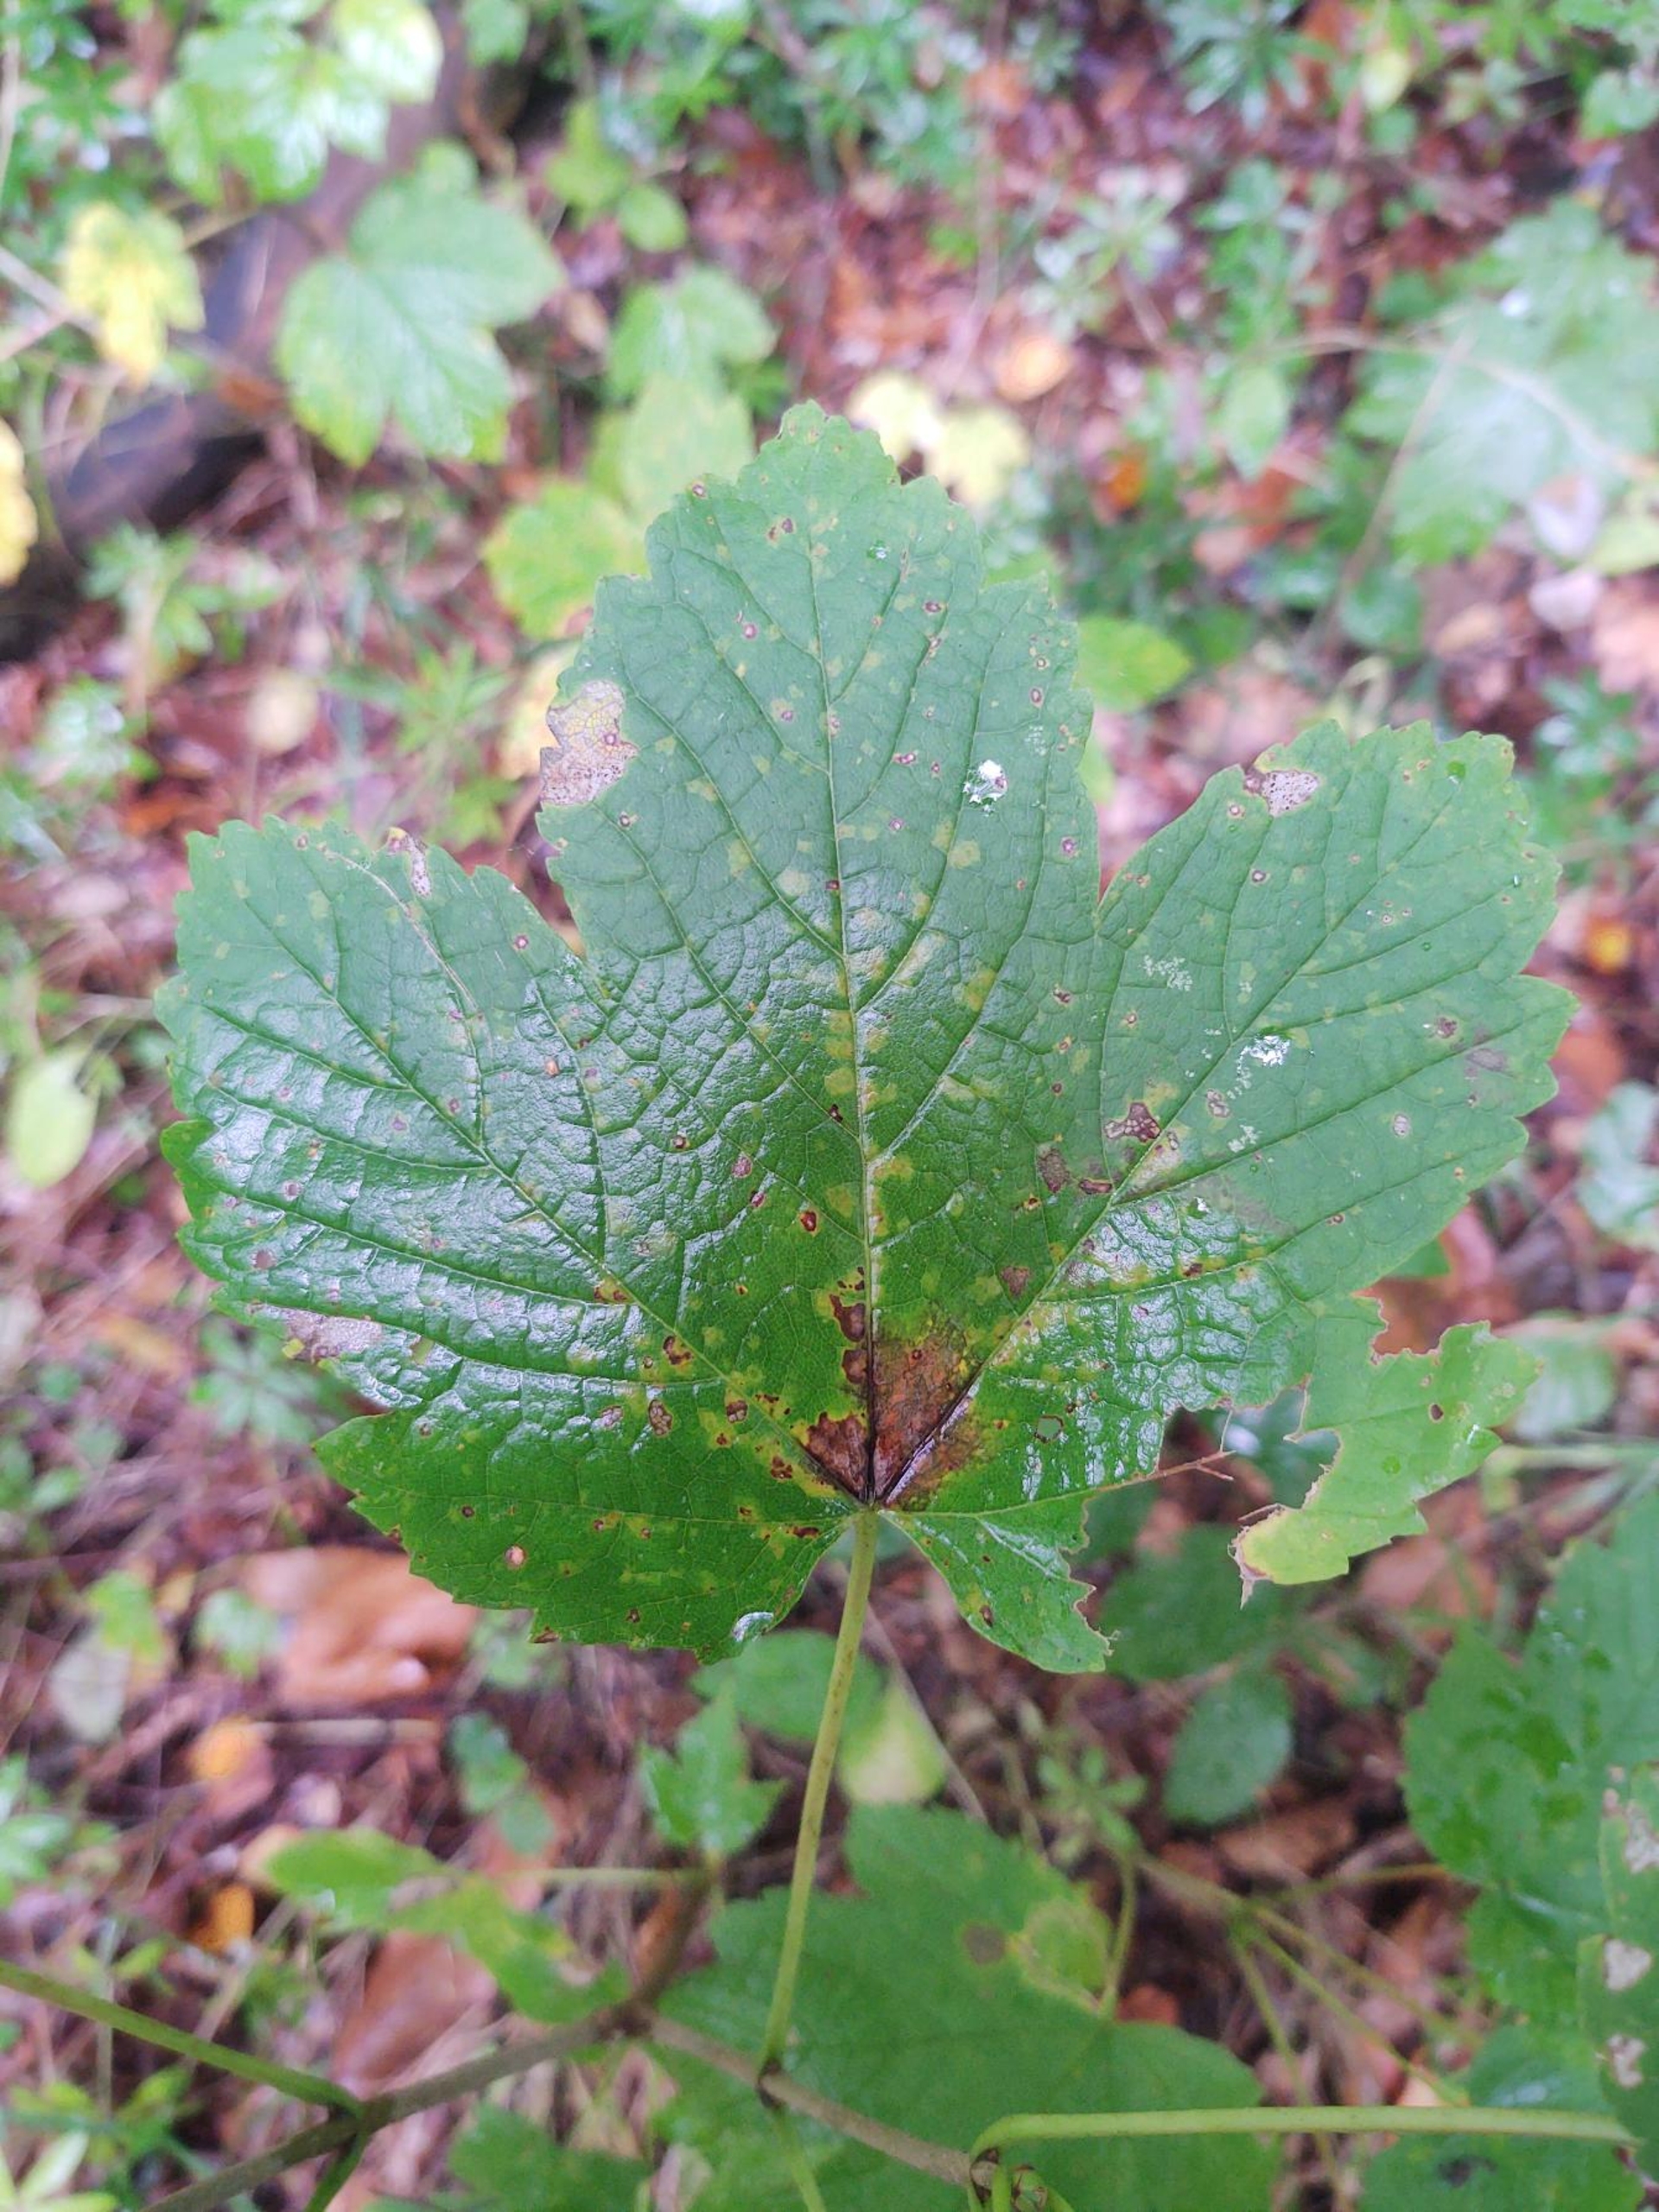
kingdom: Plantae
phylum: Tracheophyta
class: Magnoliopsida
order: Sapindales
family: Sapindaceae
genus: Acer
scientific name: Acer pseudoplatanus
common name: Ahorn
